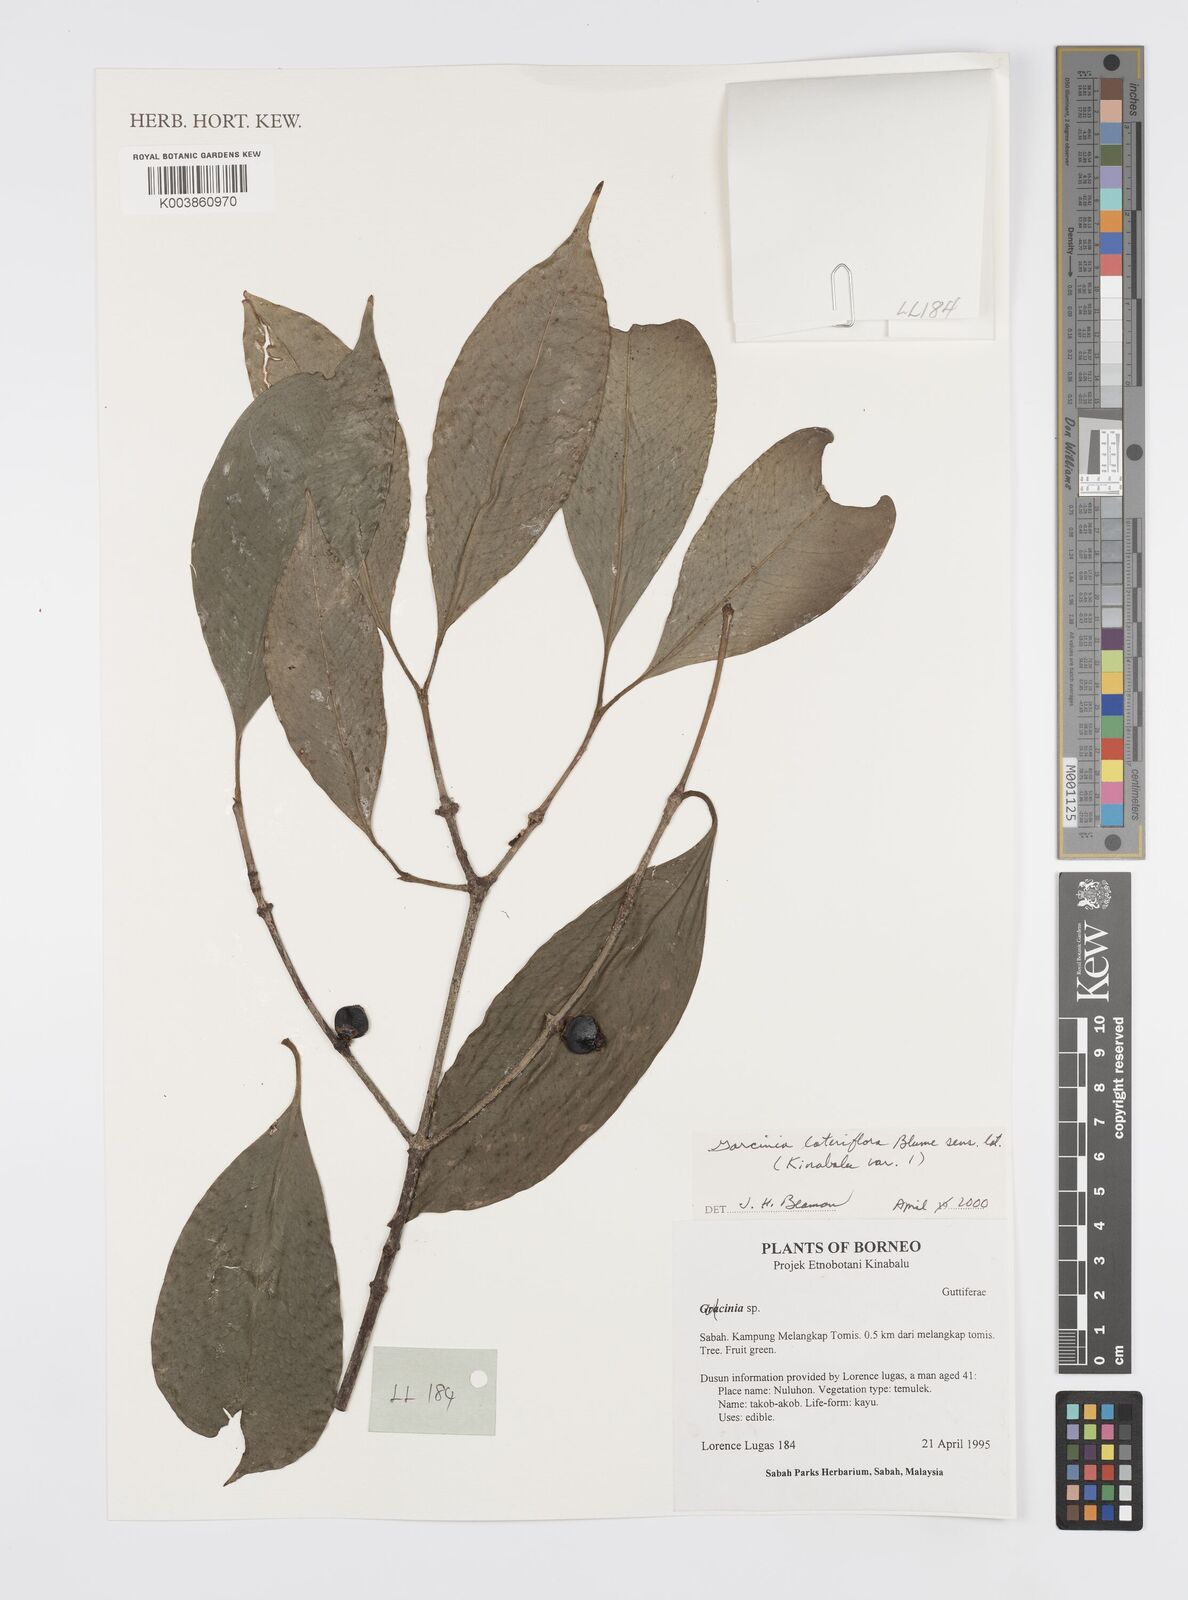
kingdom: Plantae
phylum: Tracheophyta
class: Magnoliopsida
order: Malpighiales
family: Clusiaceae
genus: Garcinia
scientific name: Garcinia lateriflora
